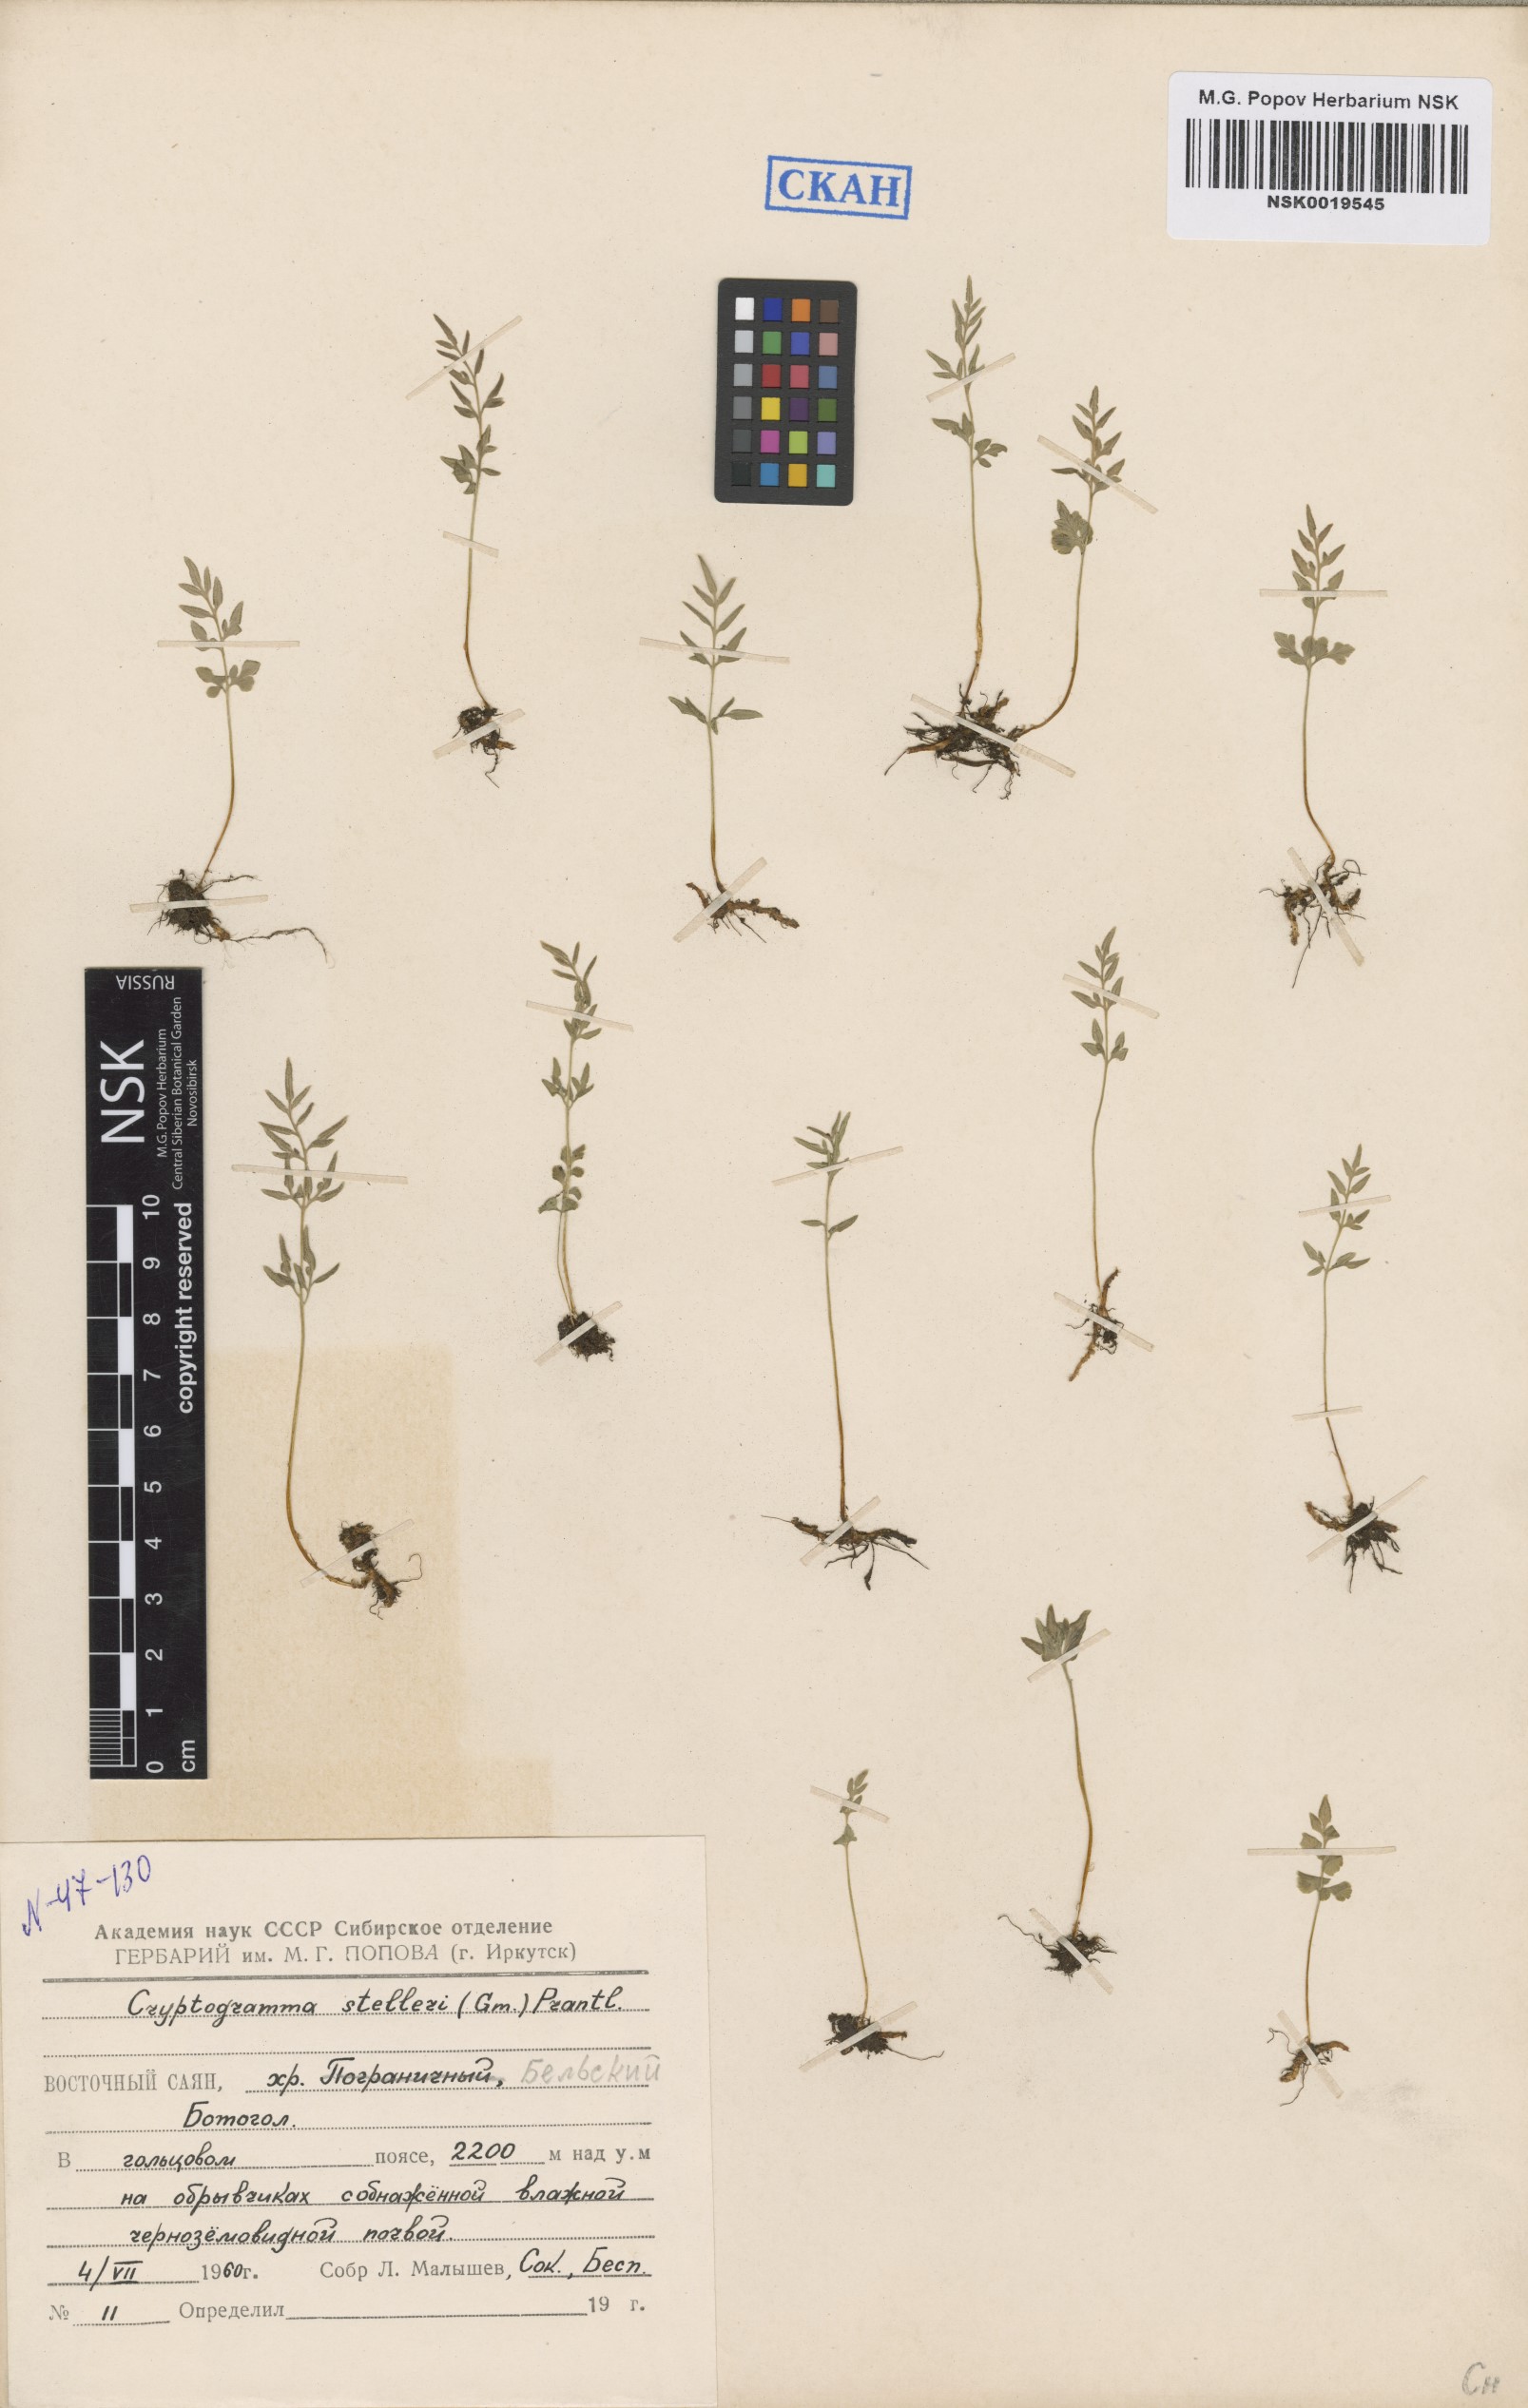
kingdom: Plantae
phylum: Tracheophyta
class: Polypodiopsida
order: Polypodiales
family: Pteridaceae
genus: Cryptogramma
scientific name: Cryptogramma stelleri
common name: Cliff-brake
